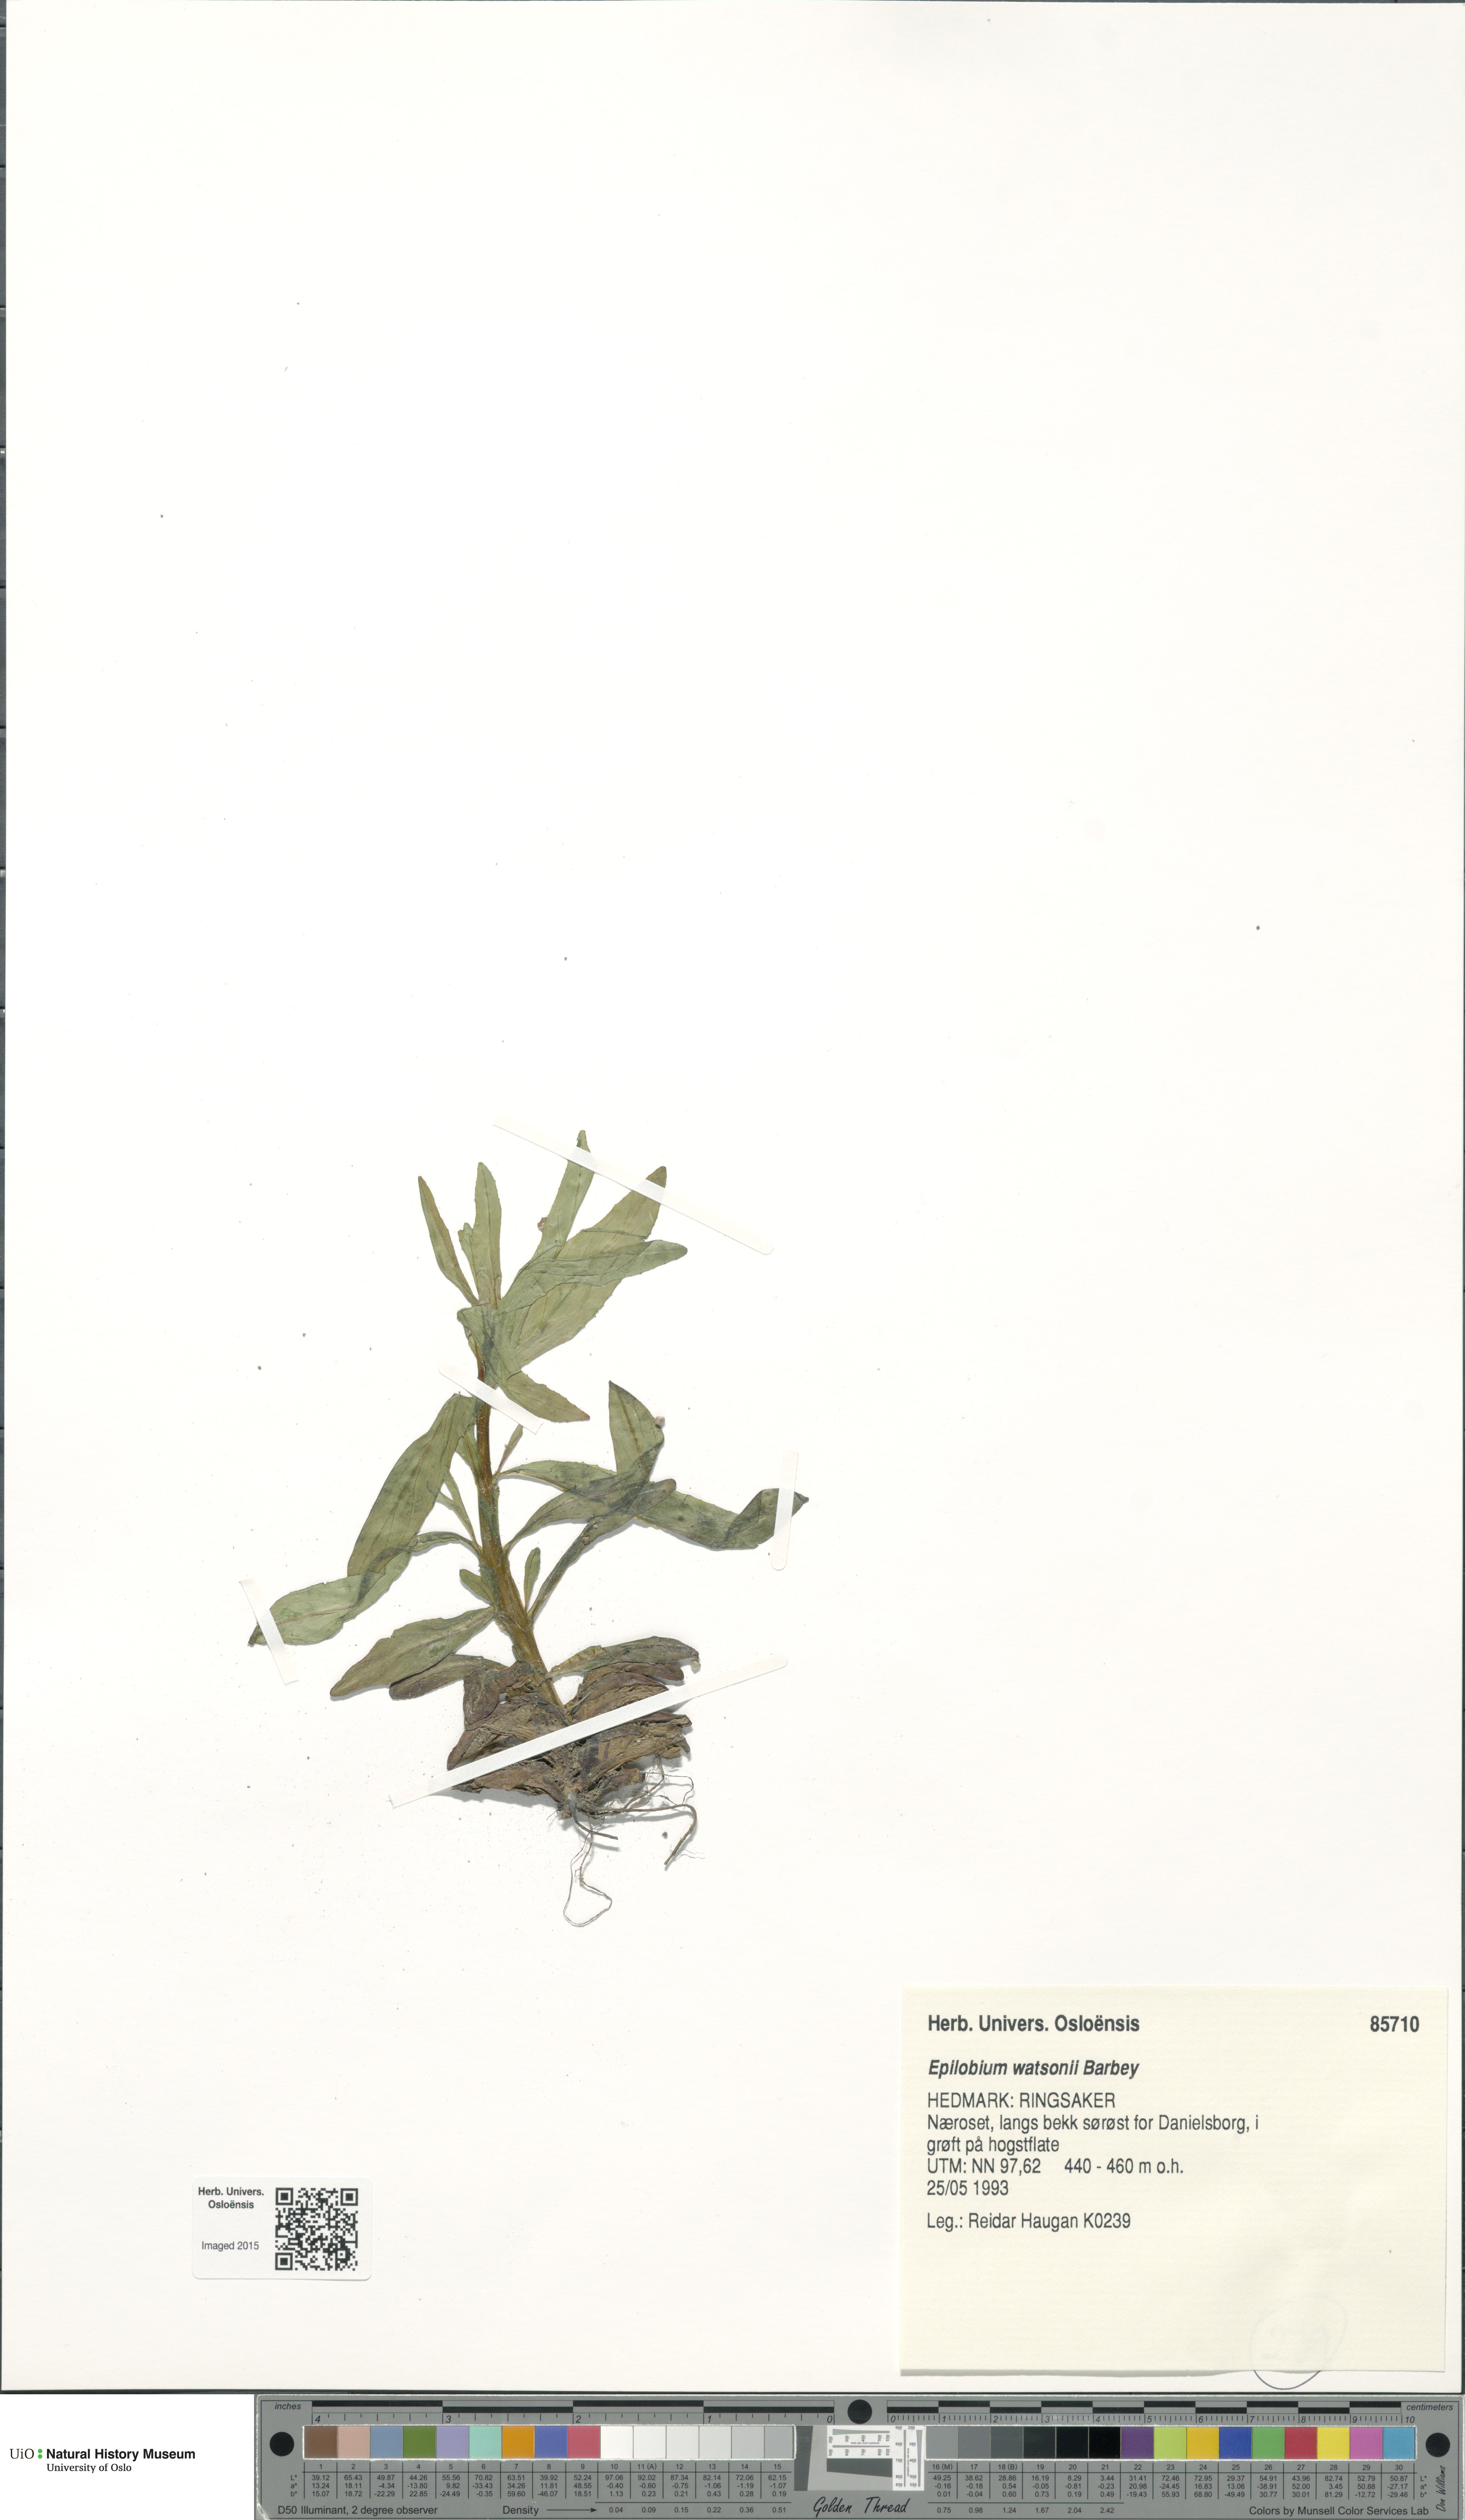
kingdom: Plantae
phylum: Tracheophyta
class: Magnoliopsida
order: Myrtales
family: Onagraceae
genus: Epilobium
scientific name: Epilobium ciliatum
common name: American willowherb
